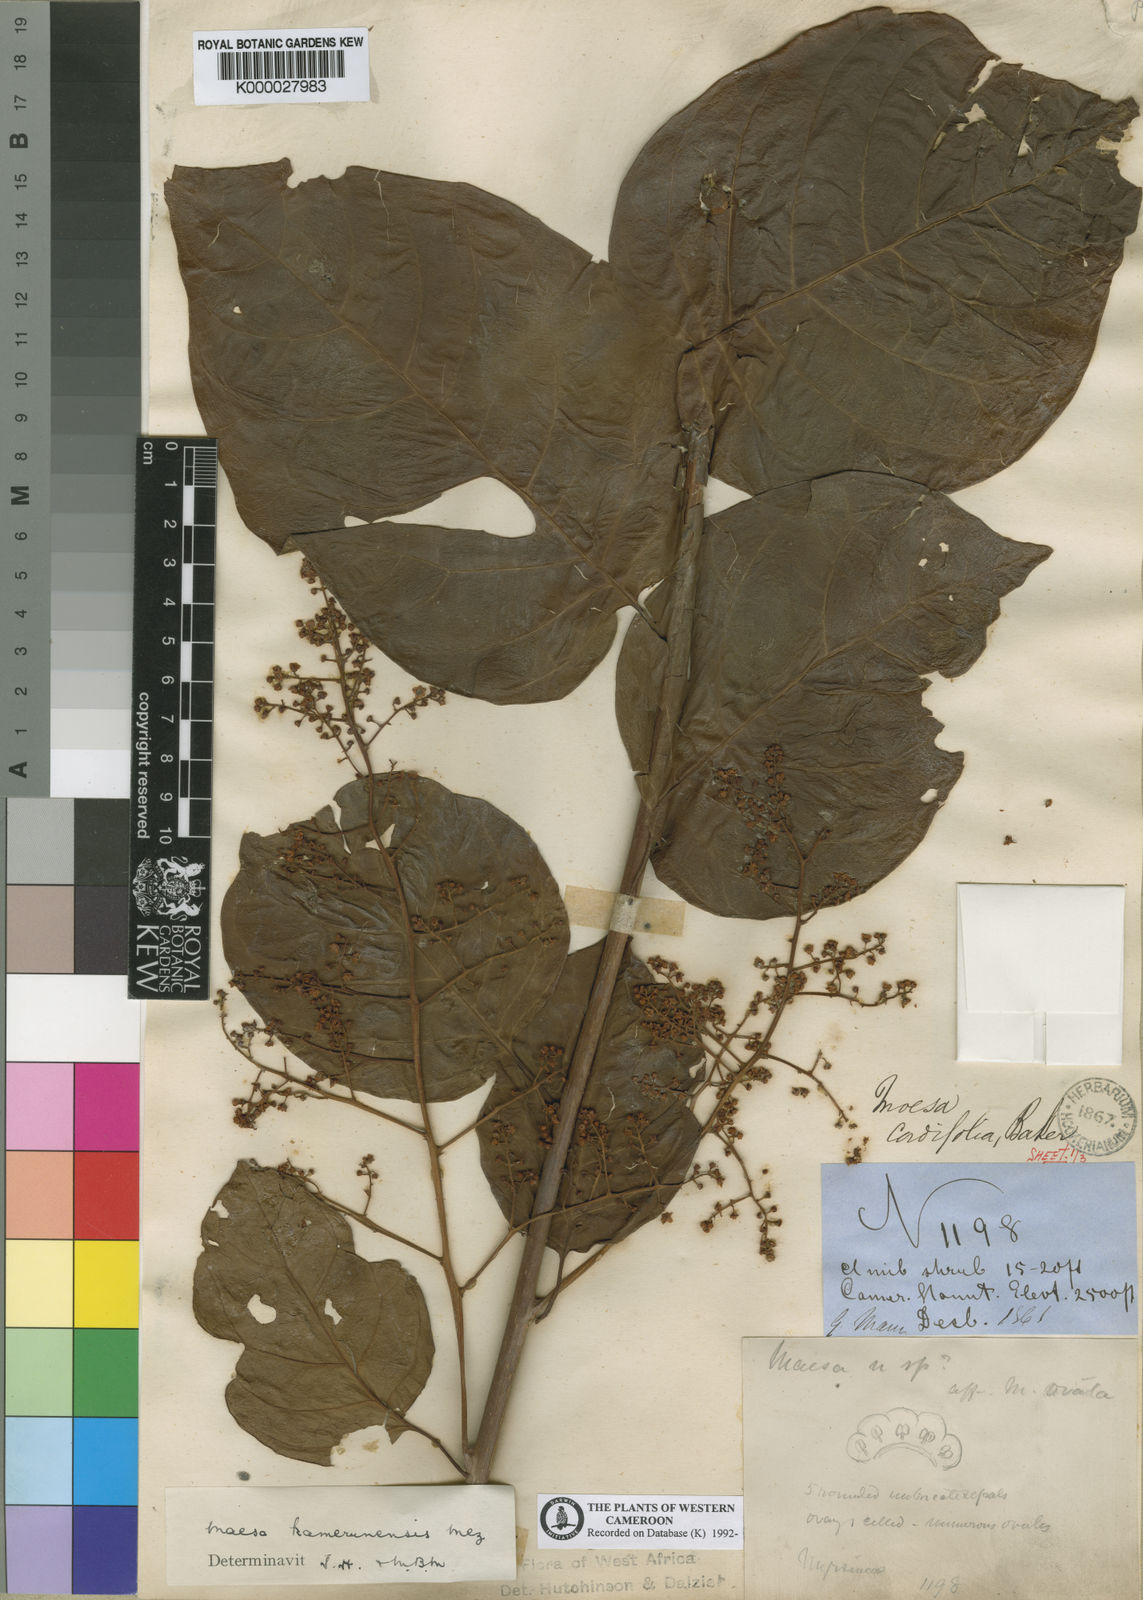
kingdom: Plantae
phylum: Tracheophyta
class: Magnoliopsida
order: Ericales
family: Primulaceae
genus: Maesa
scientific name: Maesa kamerunensis
